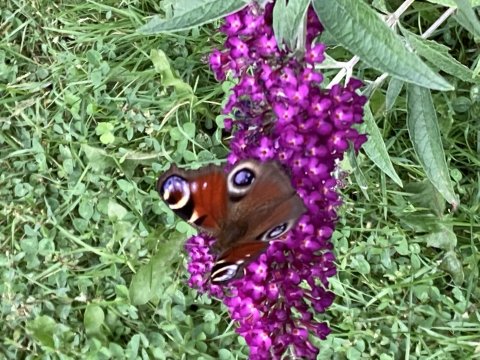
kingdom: Animalia
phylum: Arthropoda
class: Insecta
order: Lepidoptera
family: Nymphalidae
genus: Aglais
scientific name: Aglais io
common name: European Peacock
